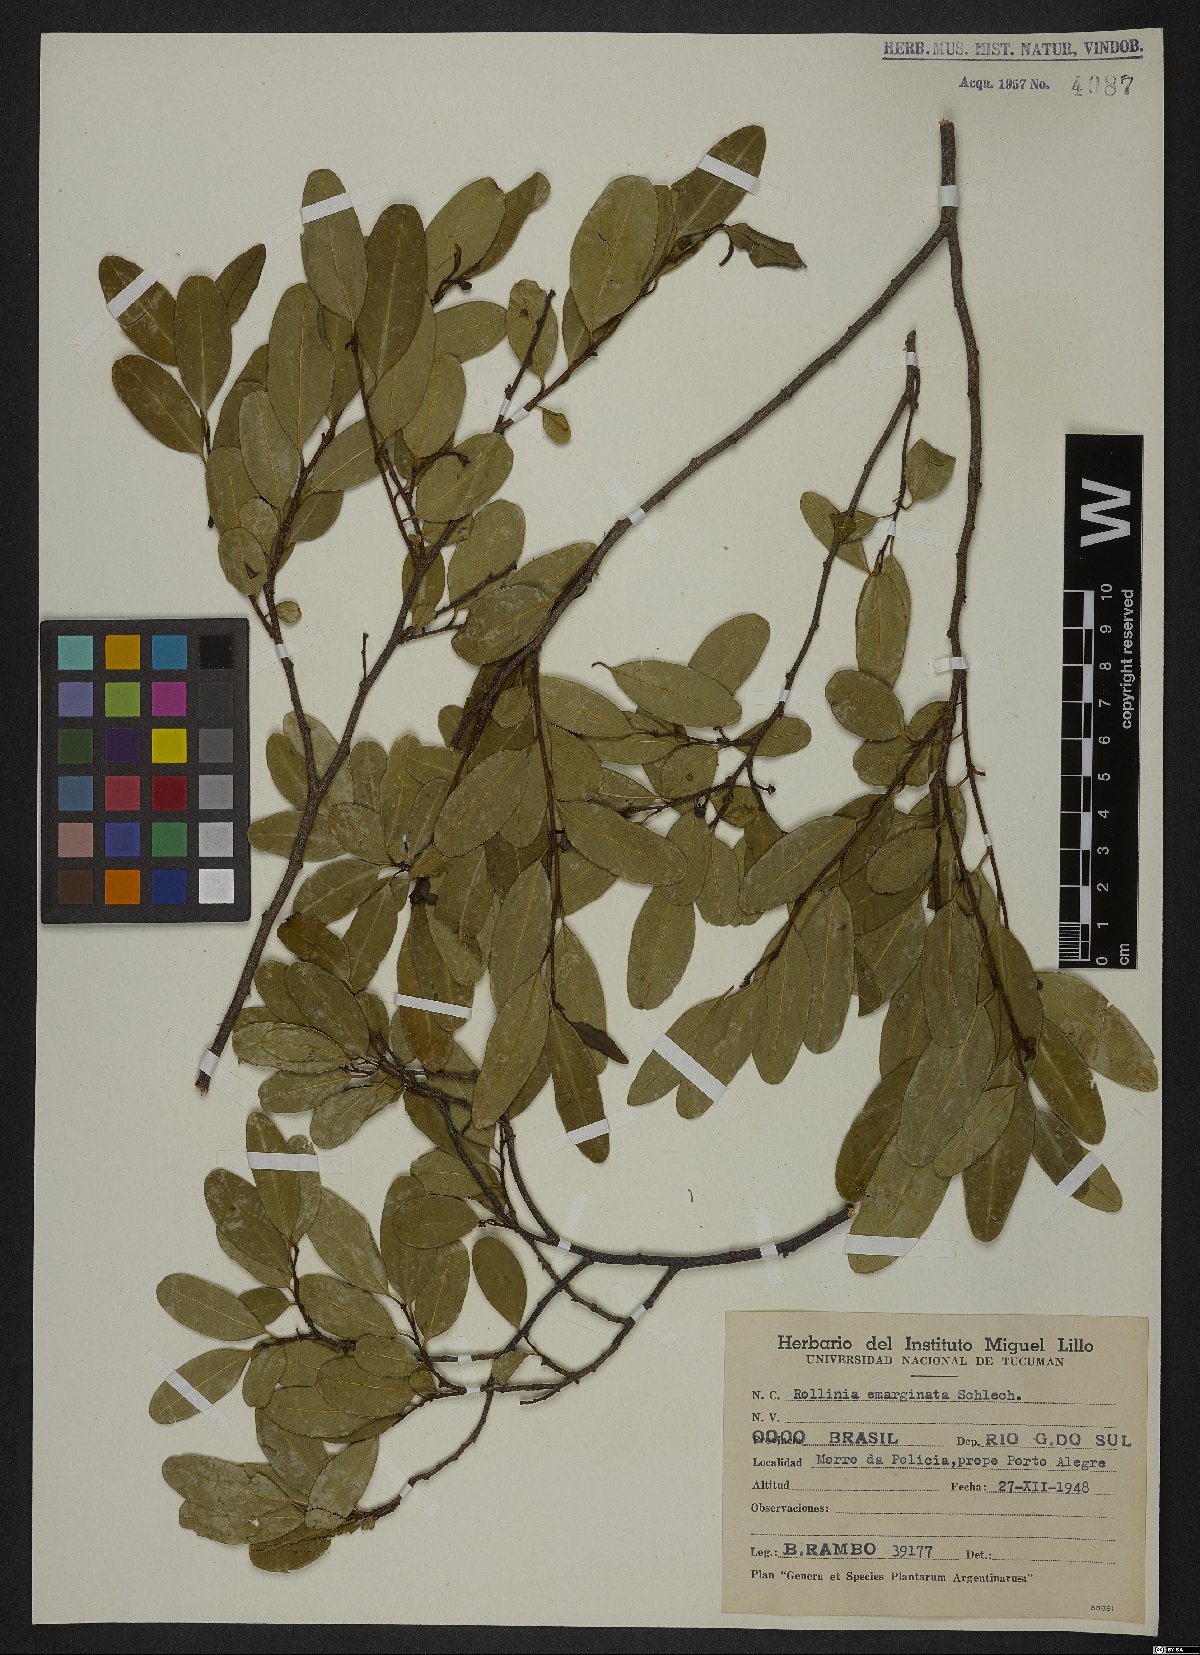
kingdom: Plantae
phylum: Tracheophyta
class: Magnoliopsida
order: Magnoliales
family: Annonaceae
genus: Annona
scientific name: Annona emarginata
